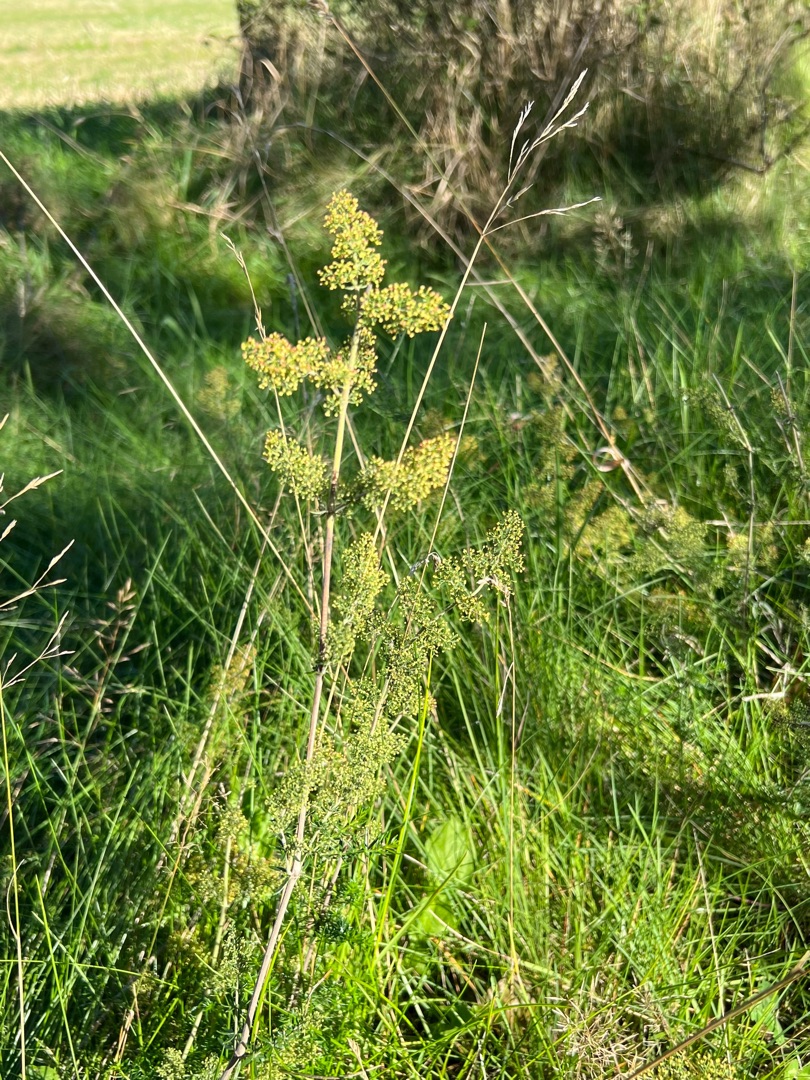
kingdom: Plantae
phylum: Tracheophyta
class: Magnoliopsida
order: Gentianales
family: Rubiaceae
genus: Galium
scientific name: Galium verum
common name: Gul snerre
